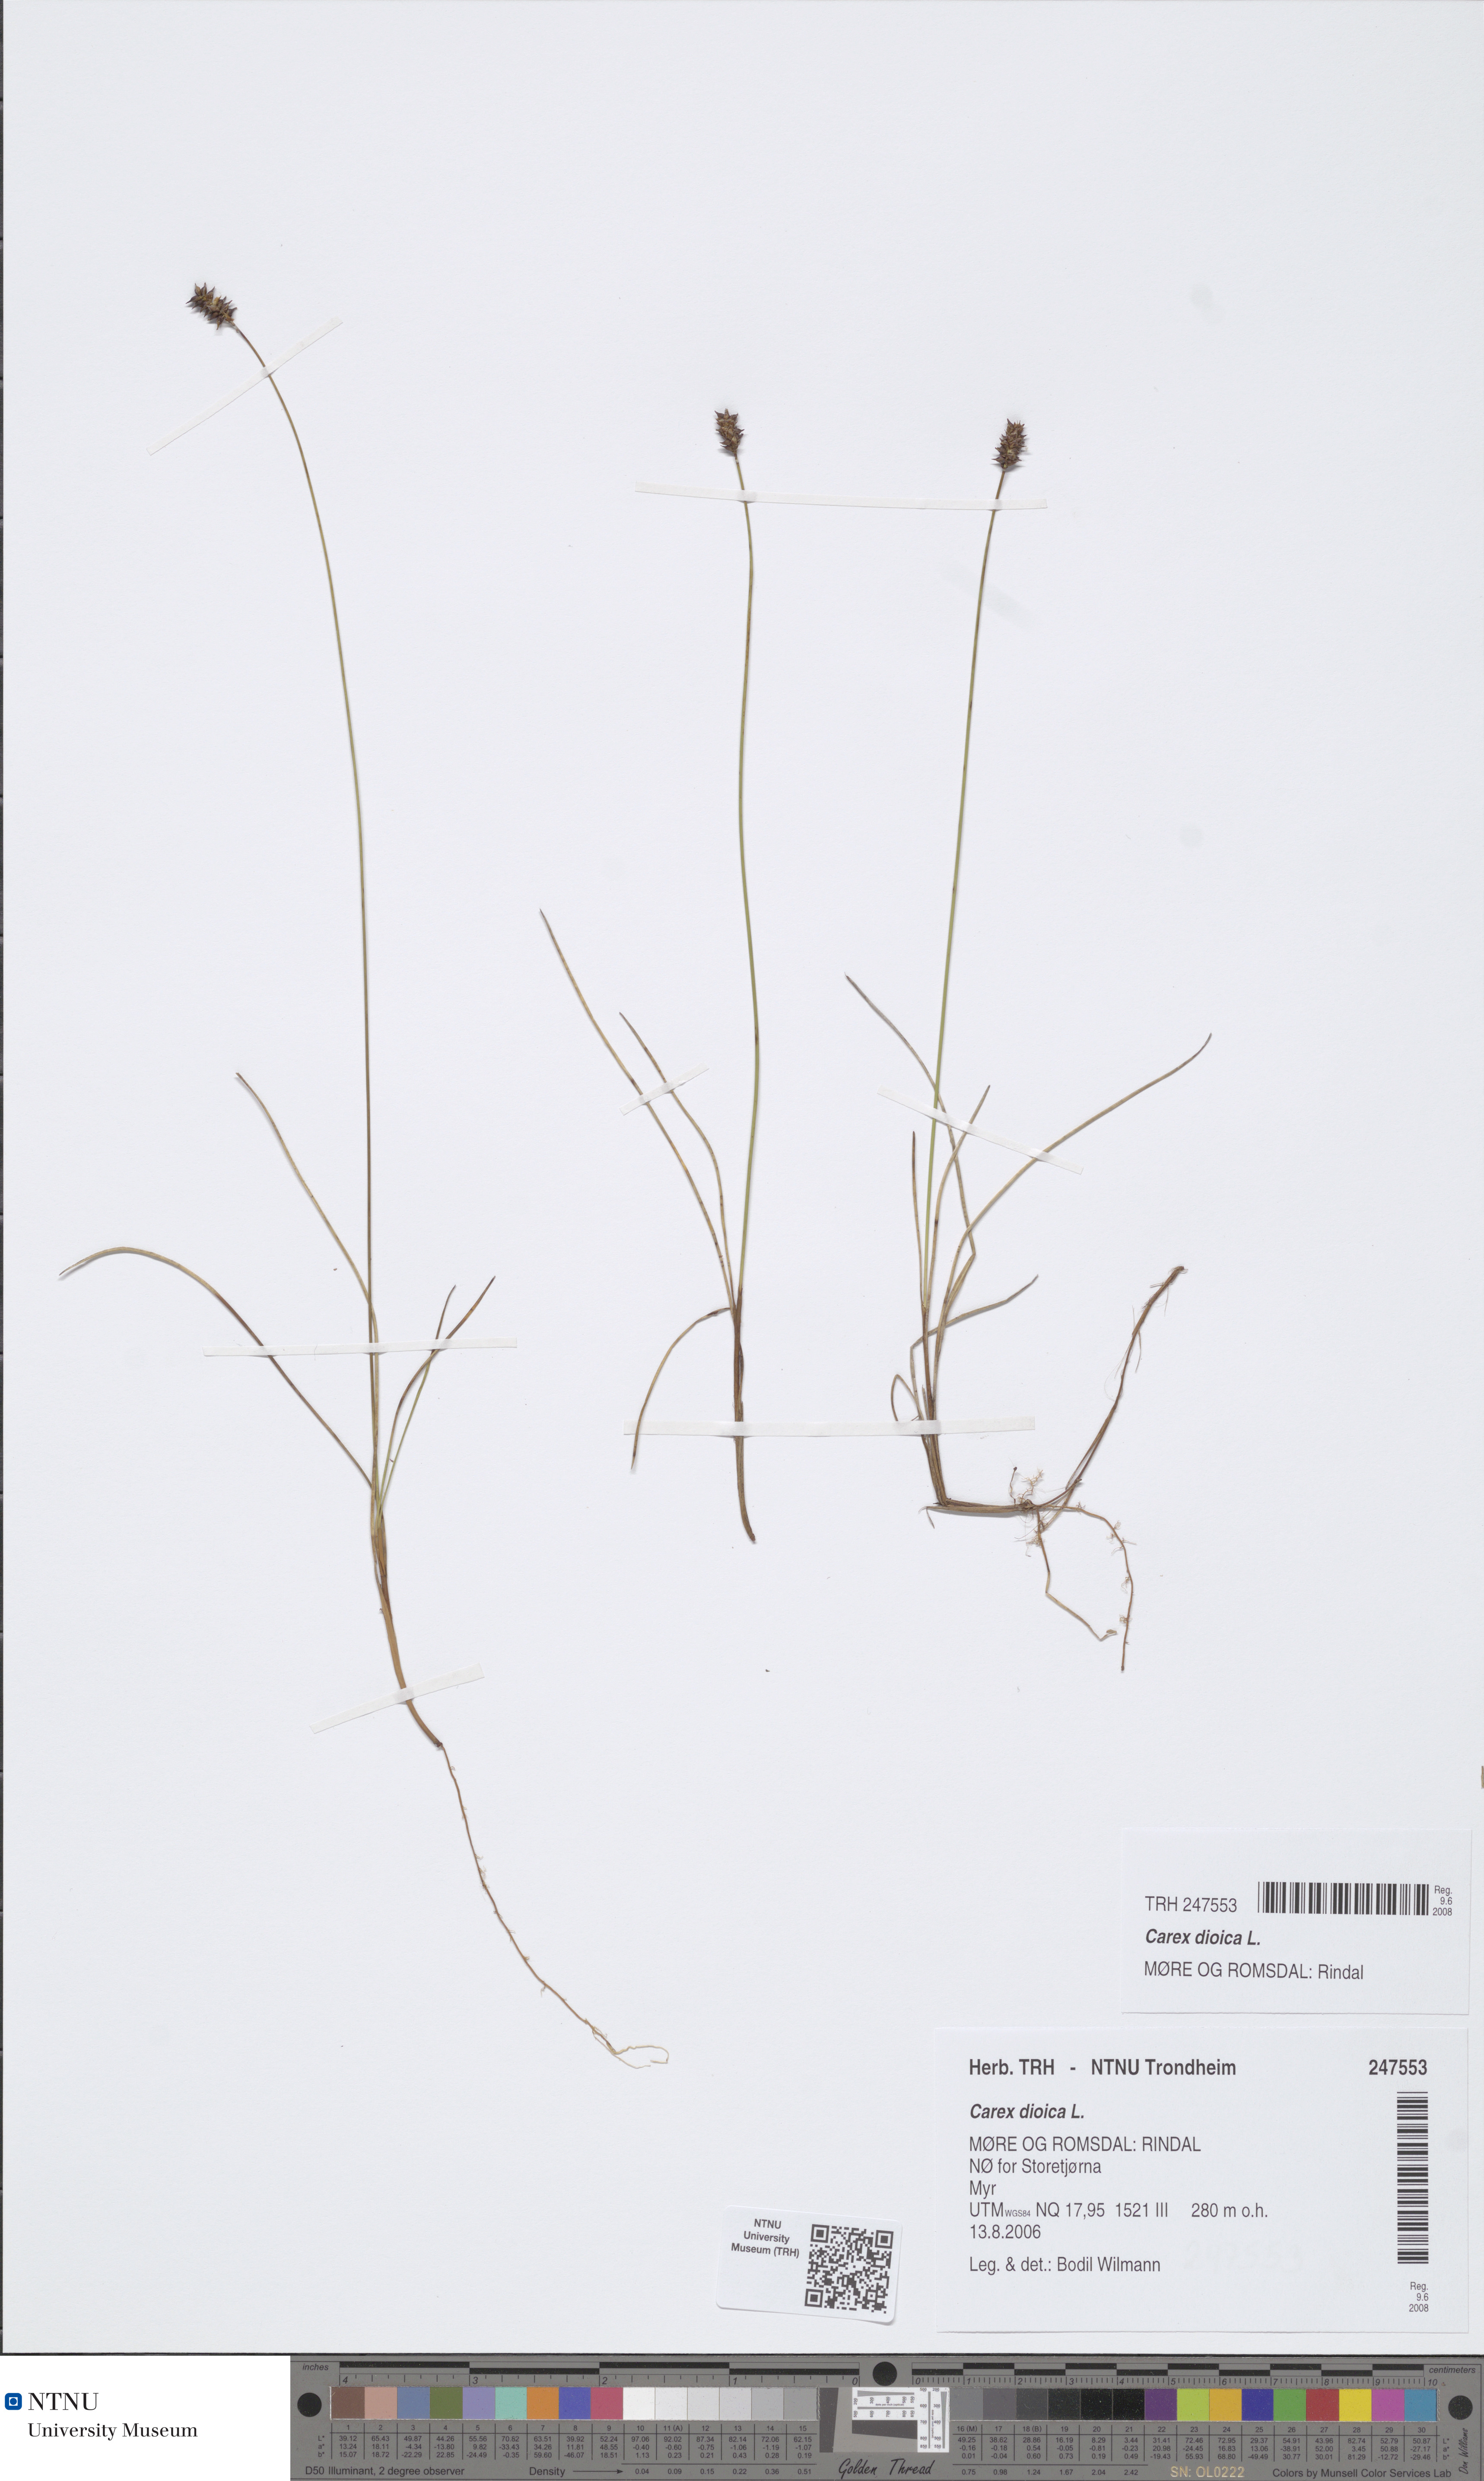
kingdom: Plantae
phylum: Tracheophyta
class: Liliopsida
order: Poales
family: Cyperaceae
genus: Carex
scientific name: Carex dioica
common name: Dioecious sedge
